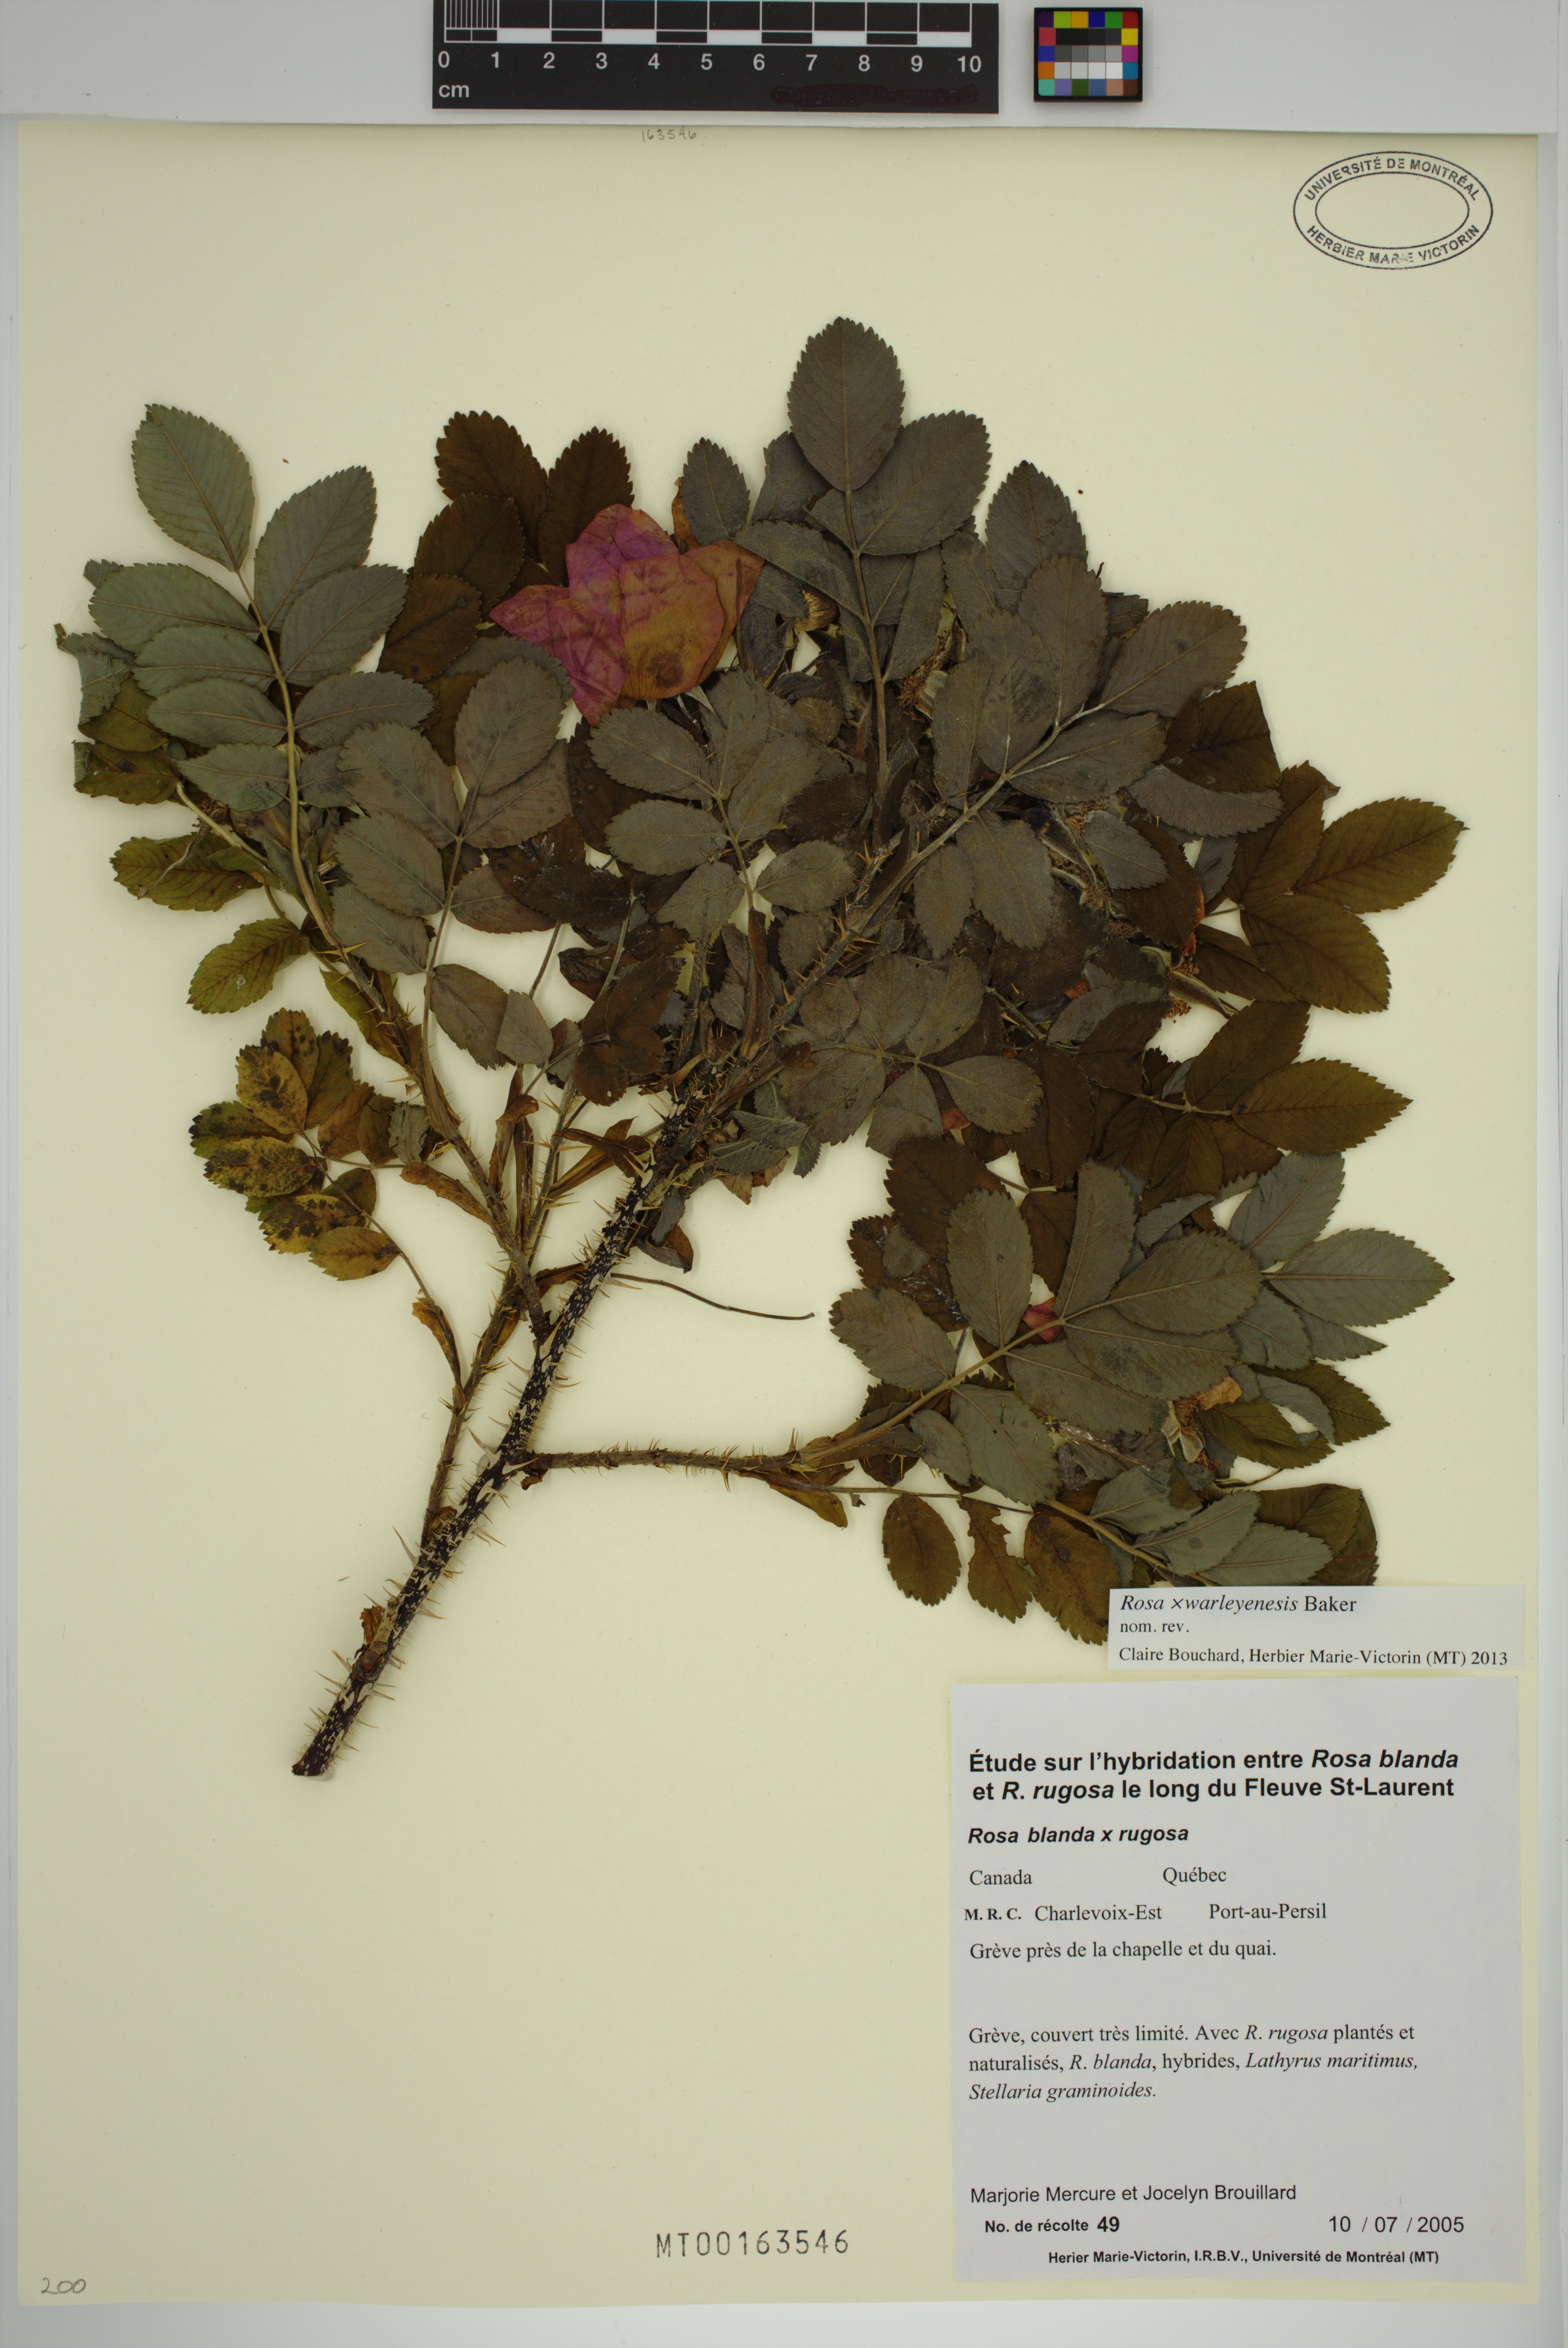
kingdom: Plantae
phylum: Tracheophyta
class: Magnoliopsida
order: Rosales
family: Rosaceae
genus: Rosa
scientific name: Rosa warleyensis
